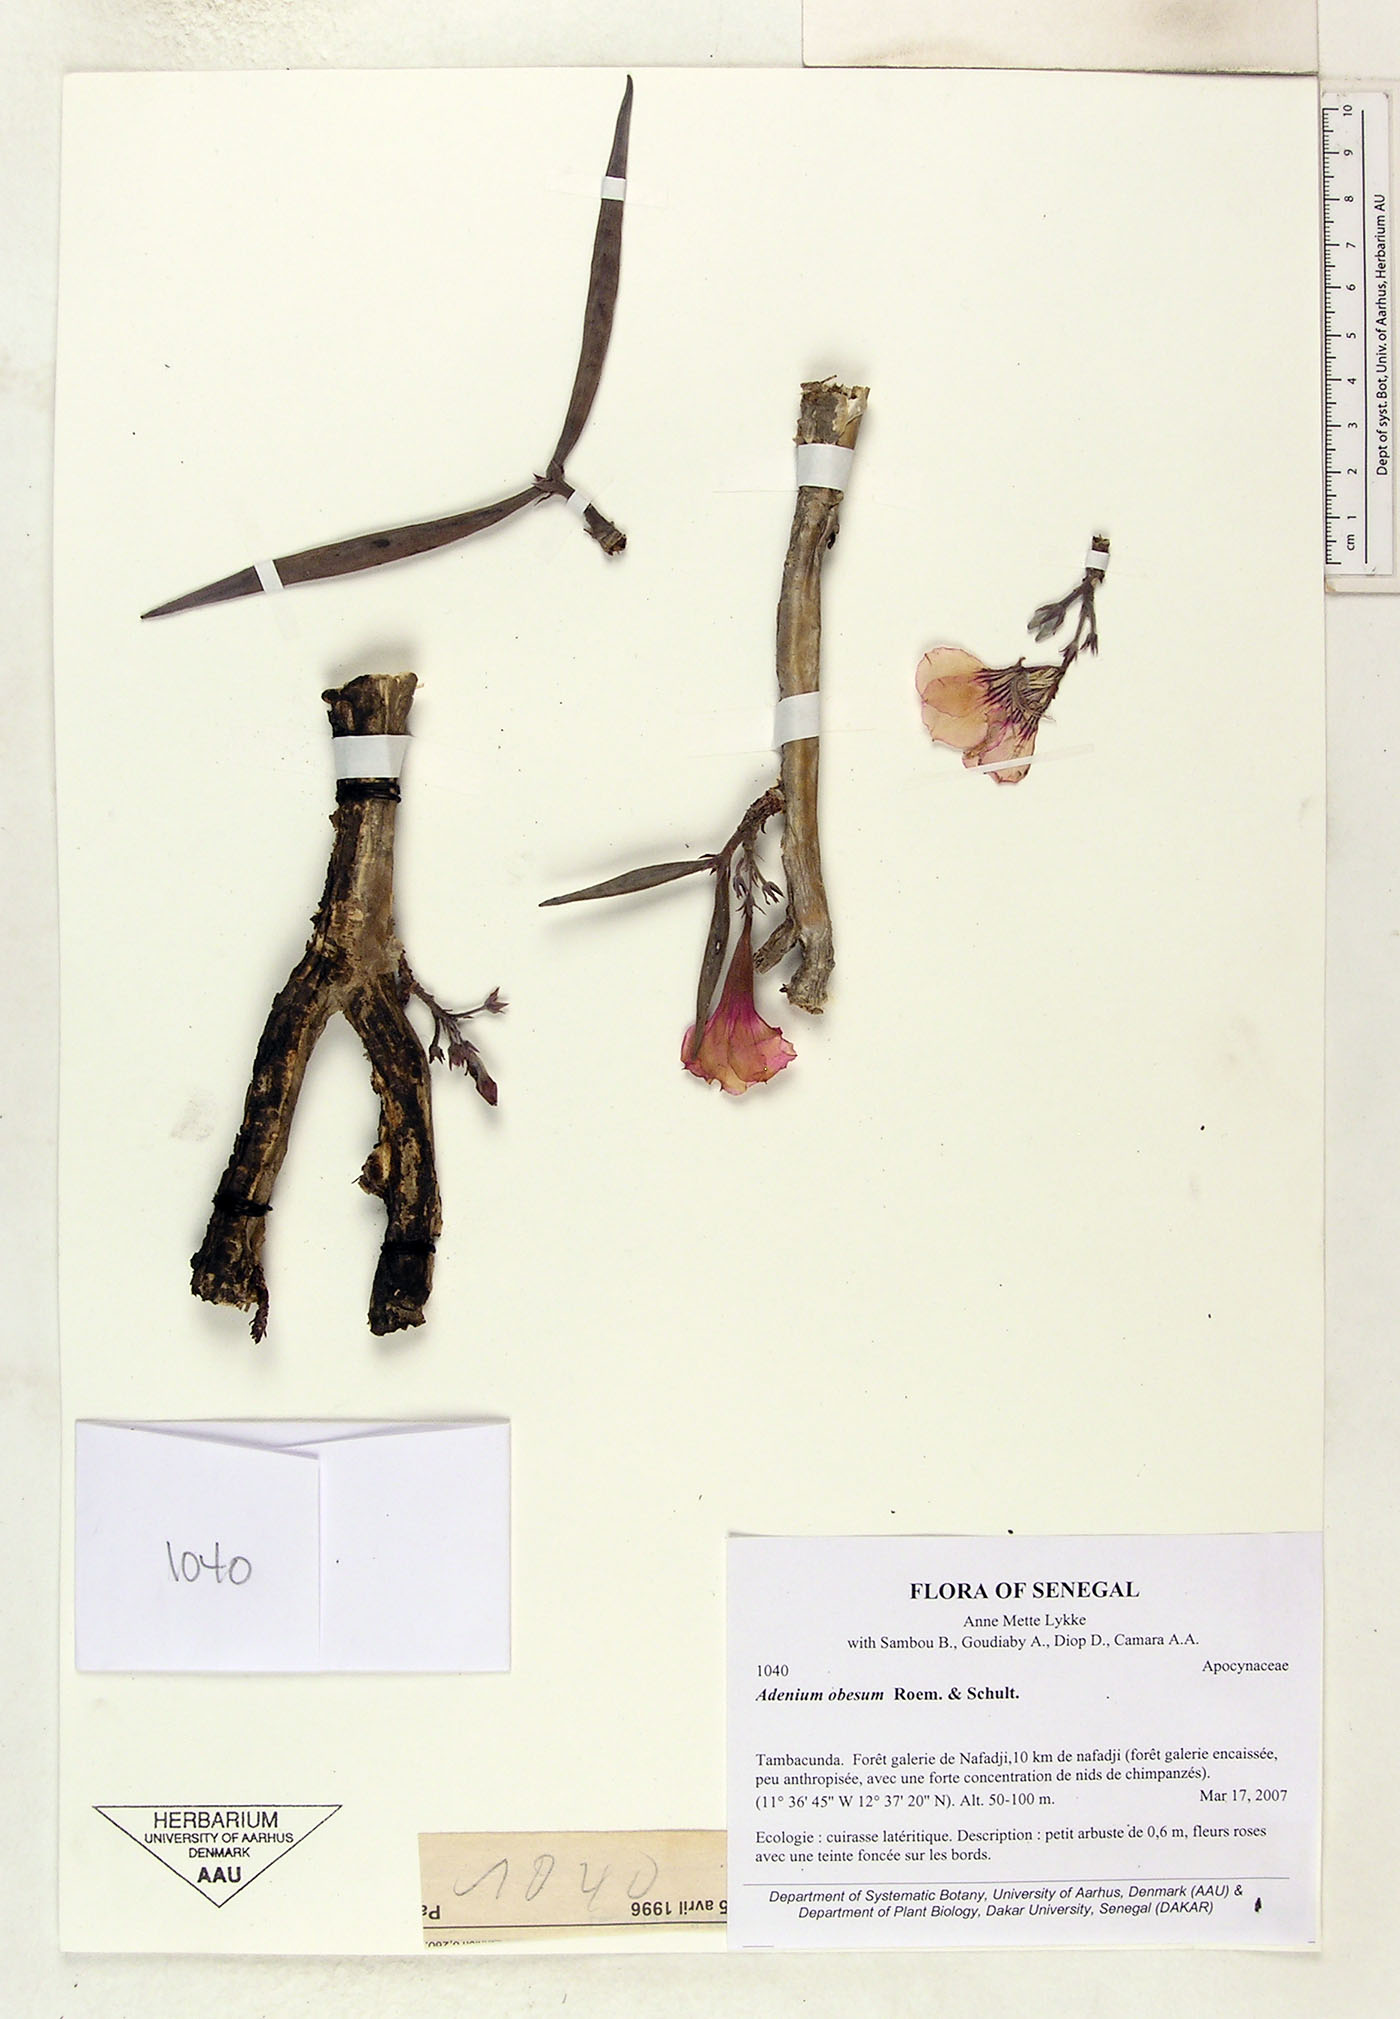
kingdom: Plantae
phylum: Tracheophyta
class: Magnoliopsida
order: Gentianales
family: Apocynaceae
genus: Adenium
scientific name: Adenium obesum
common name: Desert-rose
